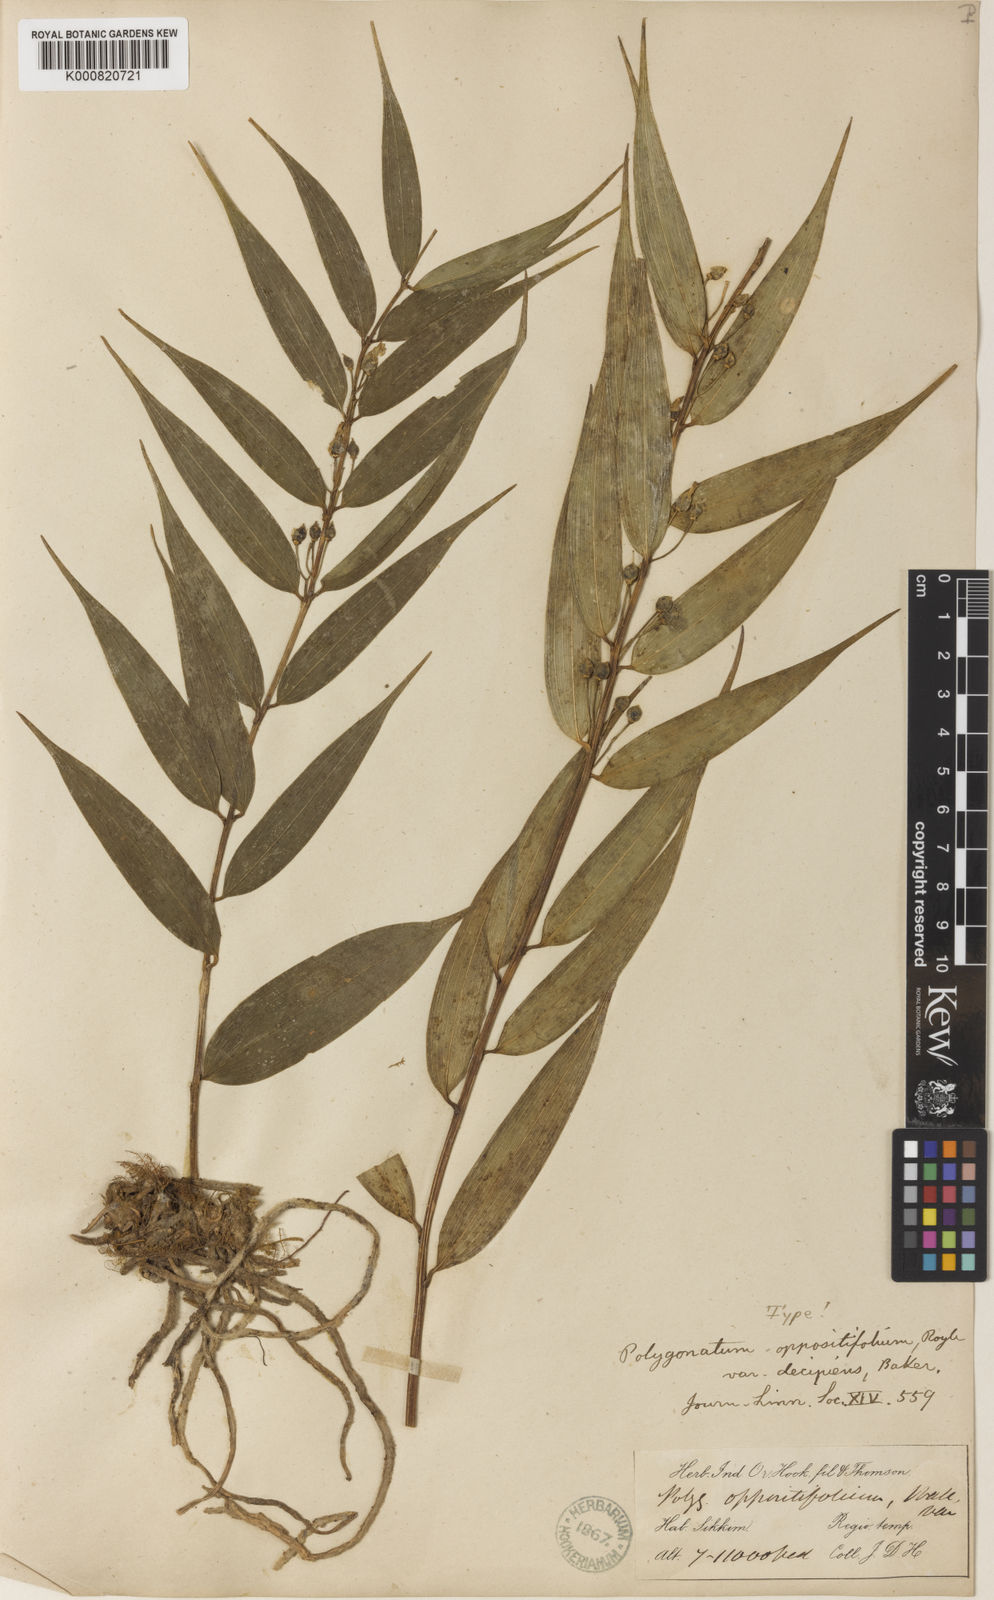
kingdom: Plantae
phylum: Tracheophyta
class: Liliopsida
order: Asparagales
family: Asparagaceae
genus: Polygonatum
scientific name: Polygonatum oppositifolium
